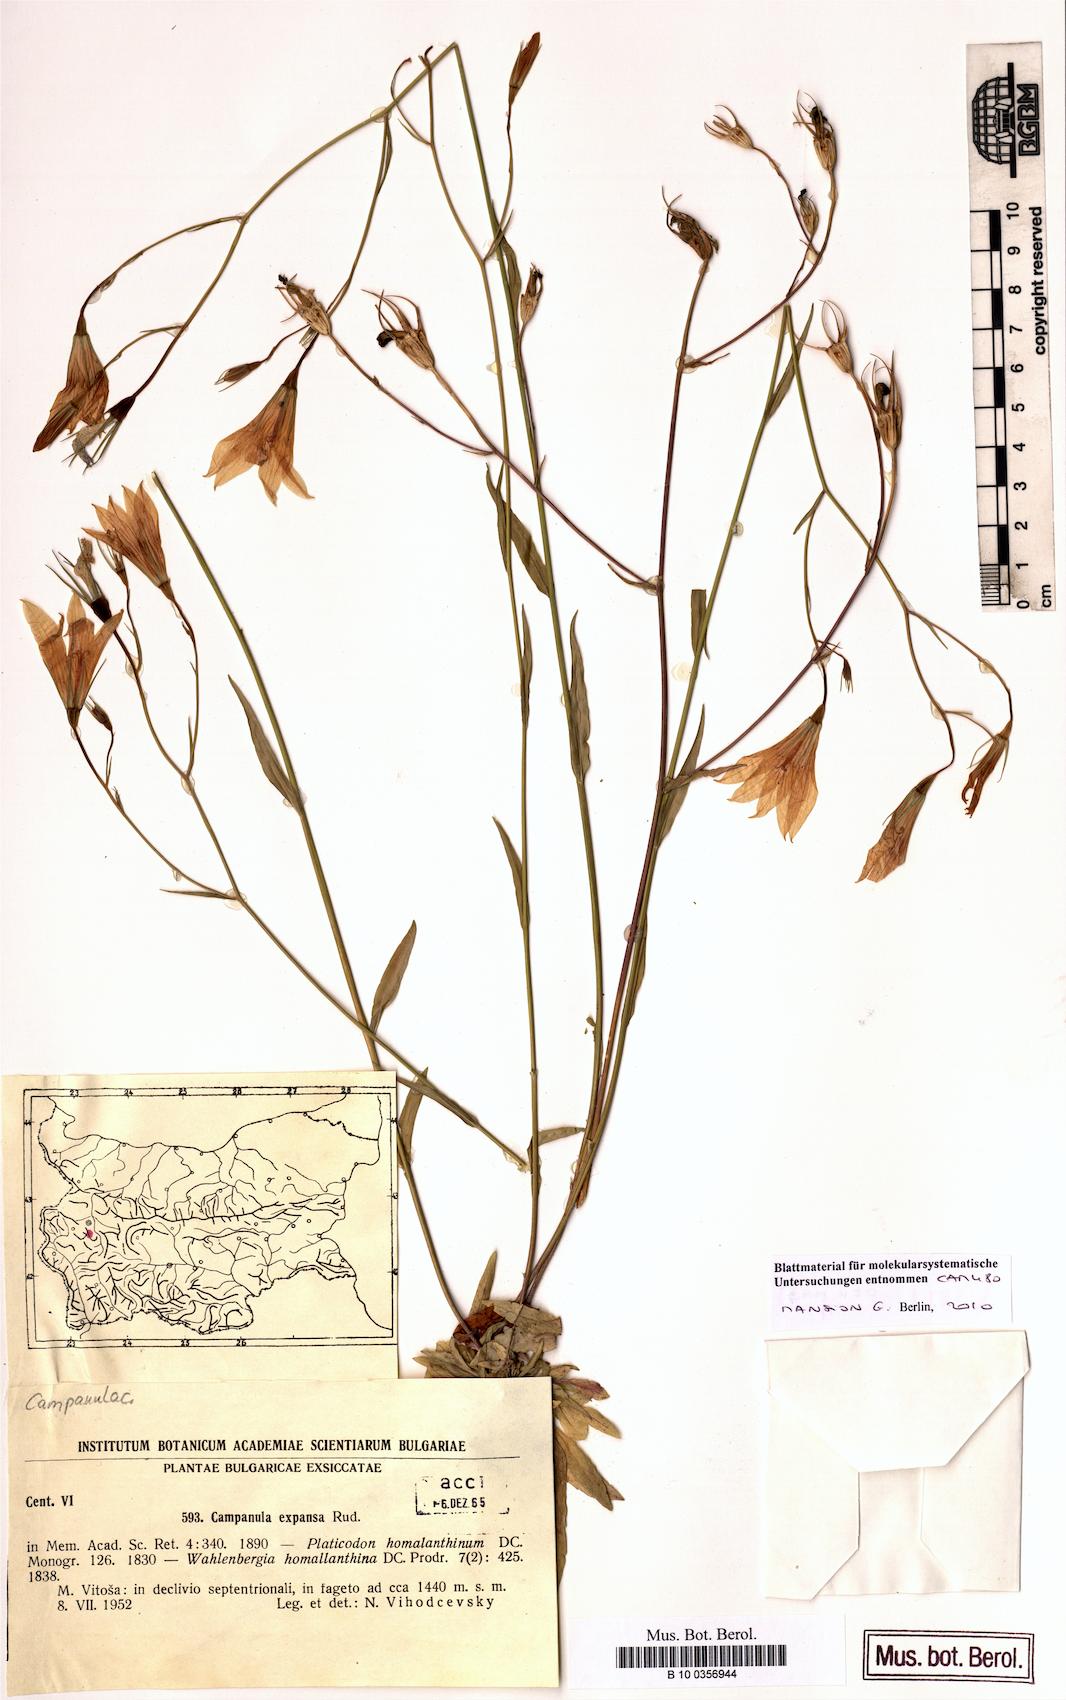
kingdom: Plantae
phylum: Tracheophyta
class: Magnoliopsida
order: Asterales
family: Campanulaceae
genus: Campanula
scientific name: Campanula expansa
